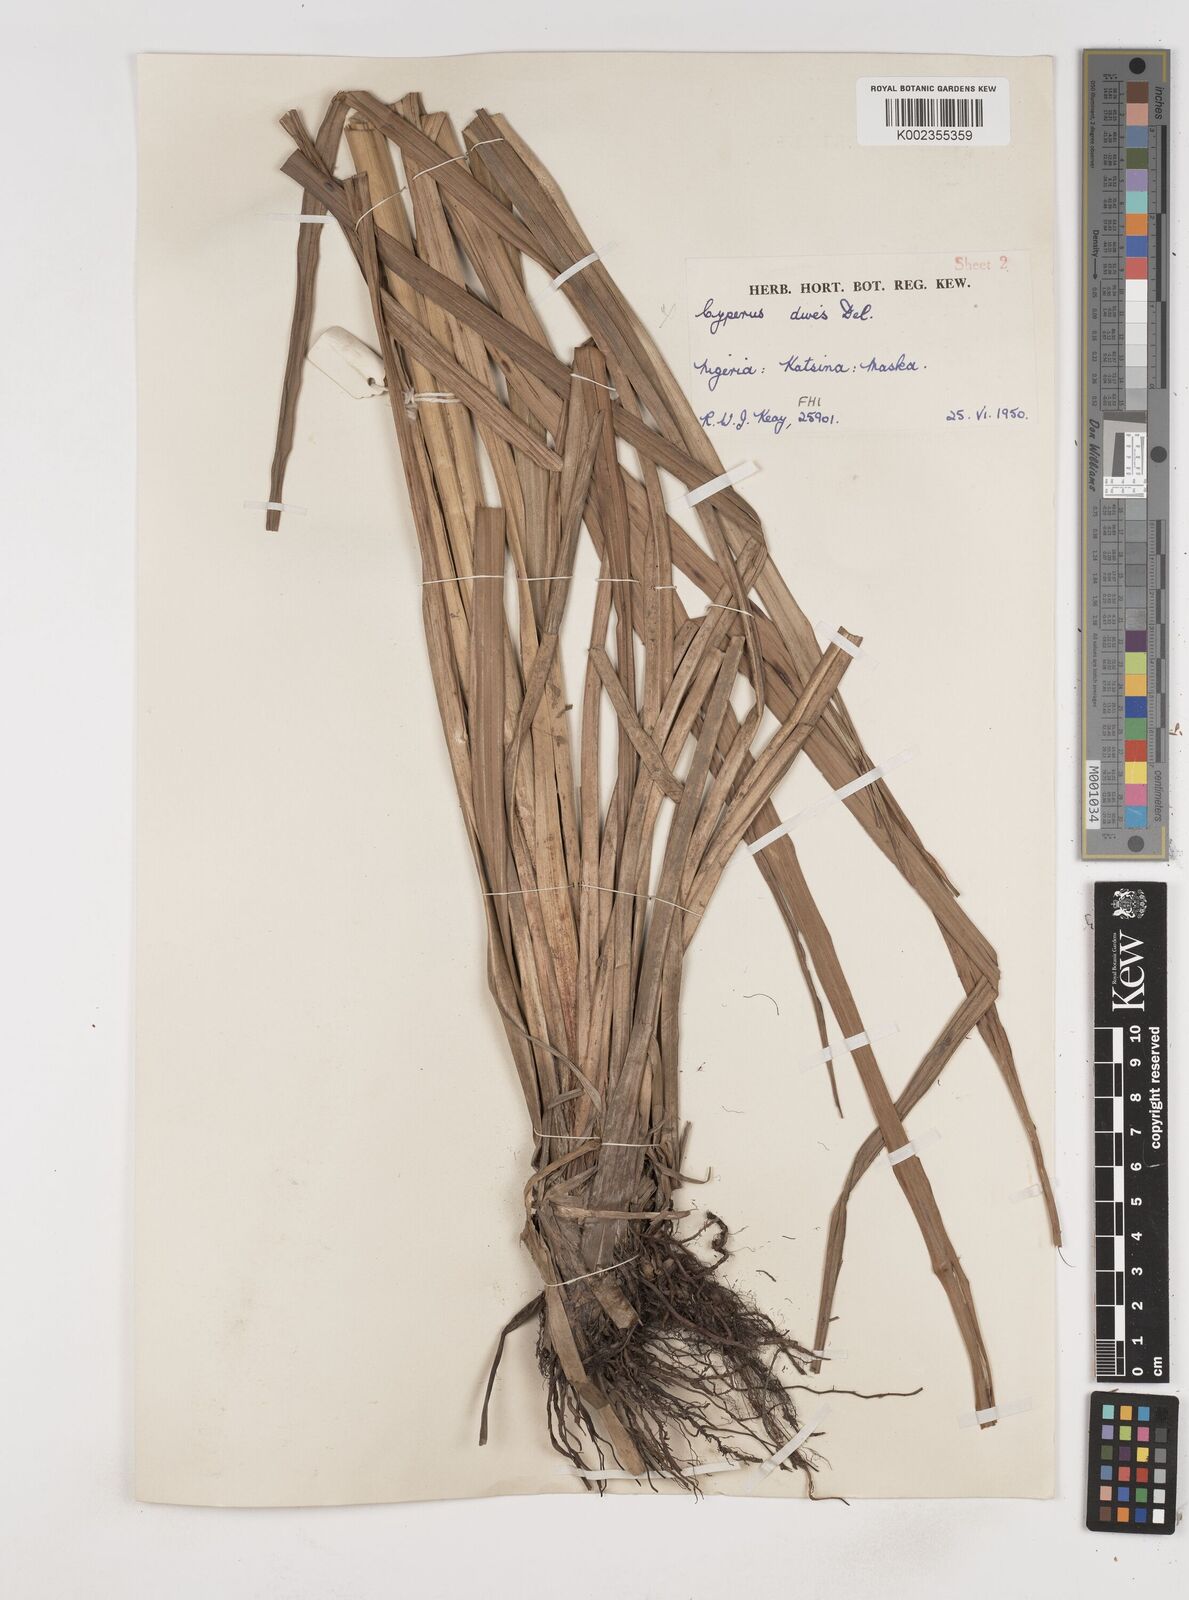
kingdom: Plantae
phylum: Tracheophyta
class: Liliopsida
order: Poales
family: Cyperaceae
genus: Cyperus
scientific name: Cyperus exaltatus
